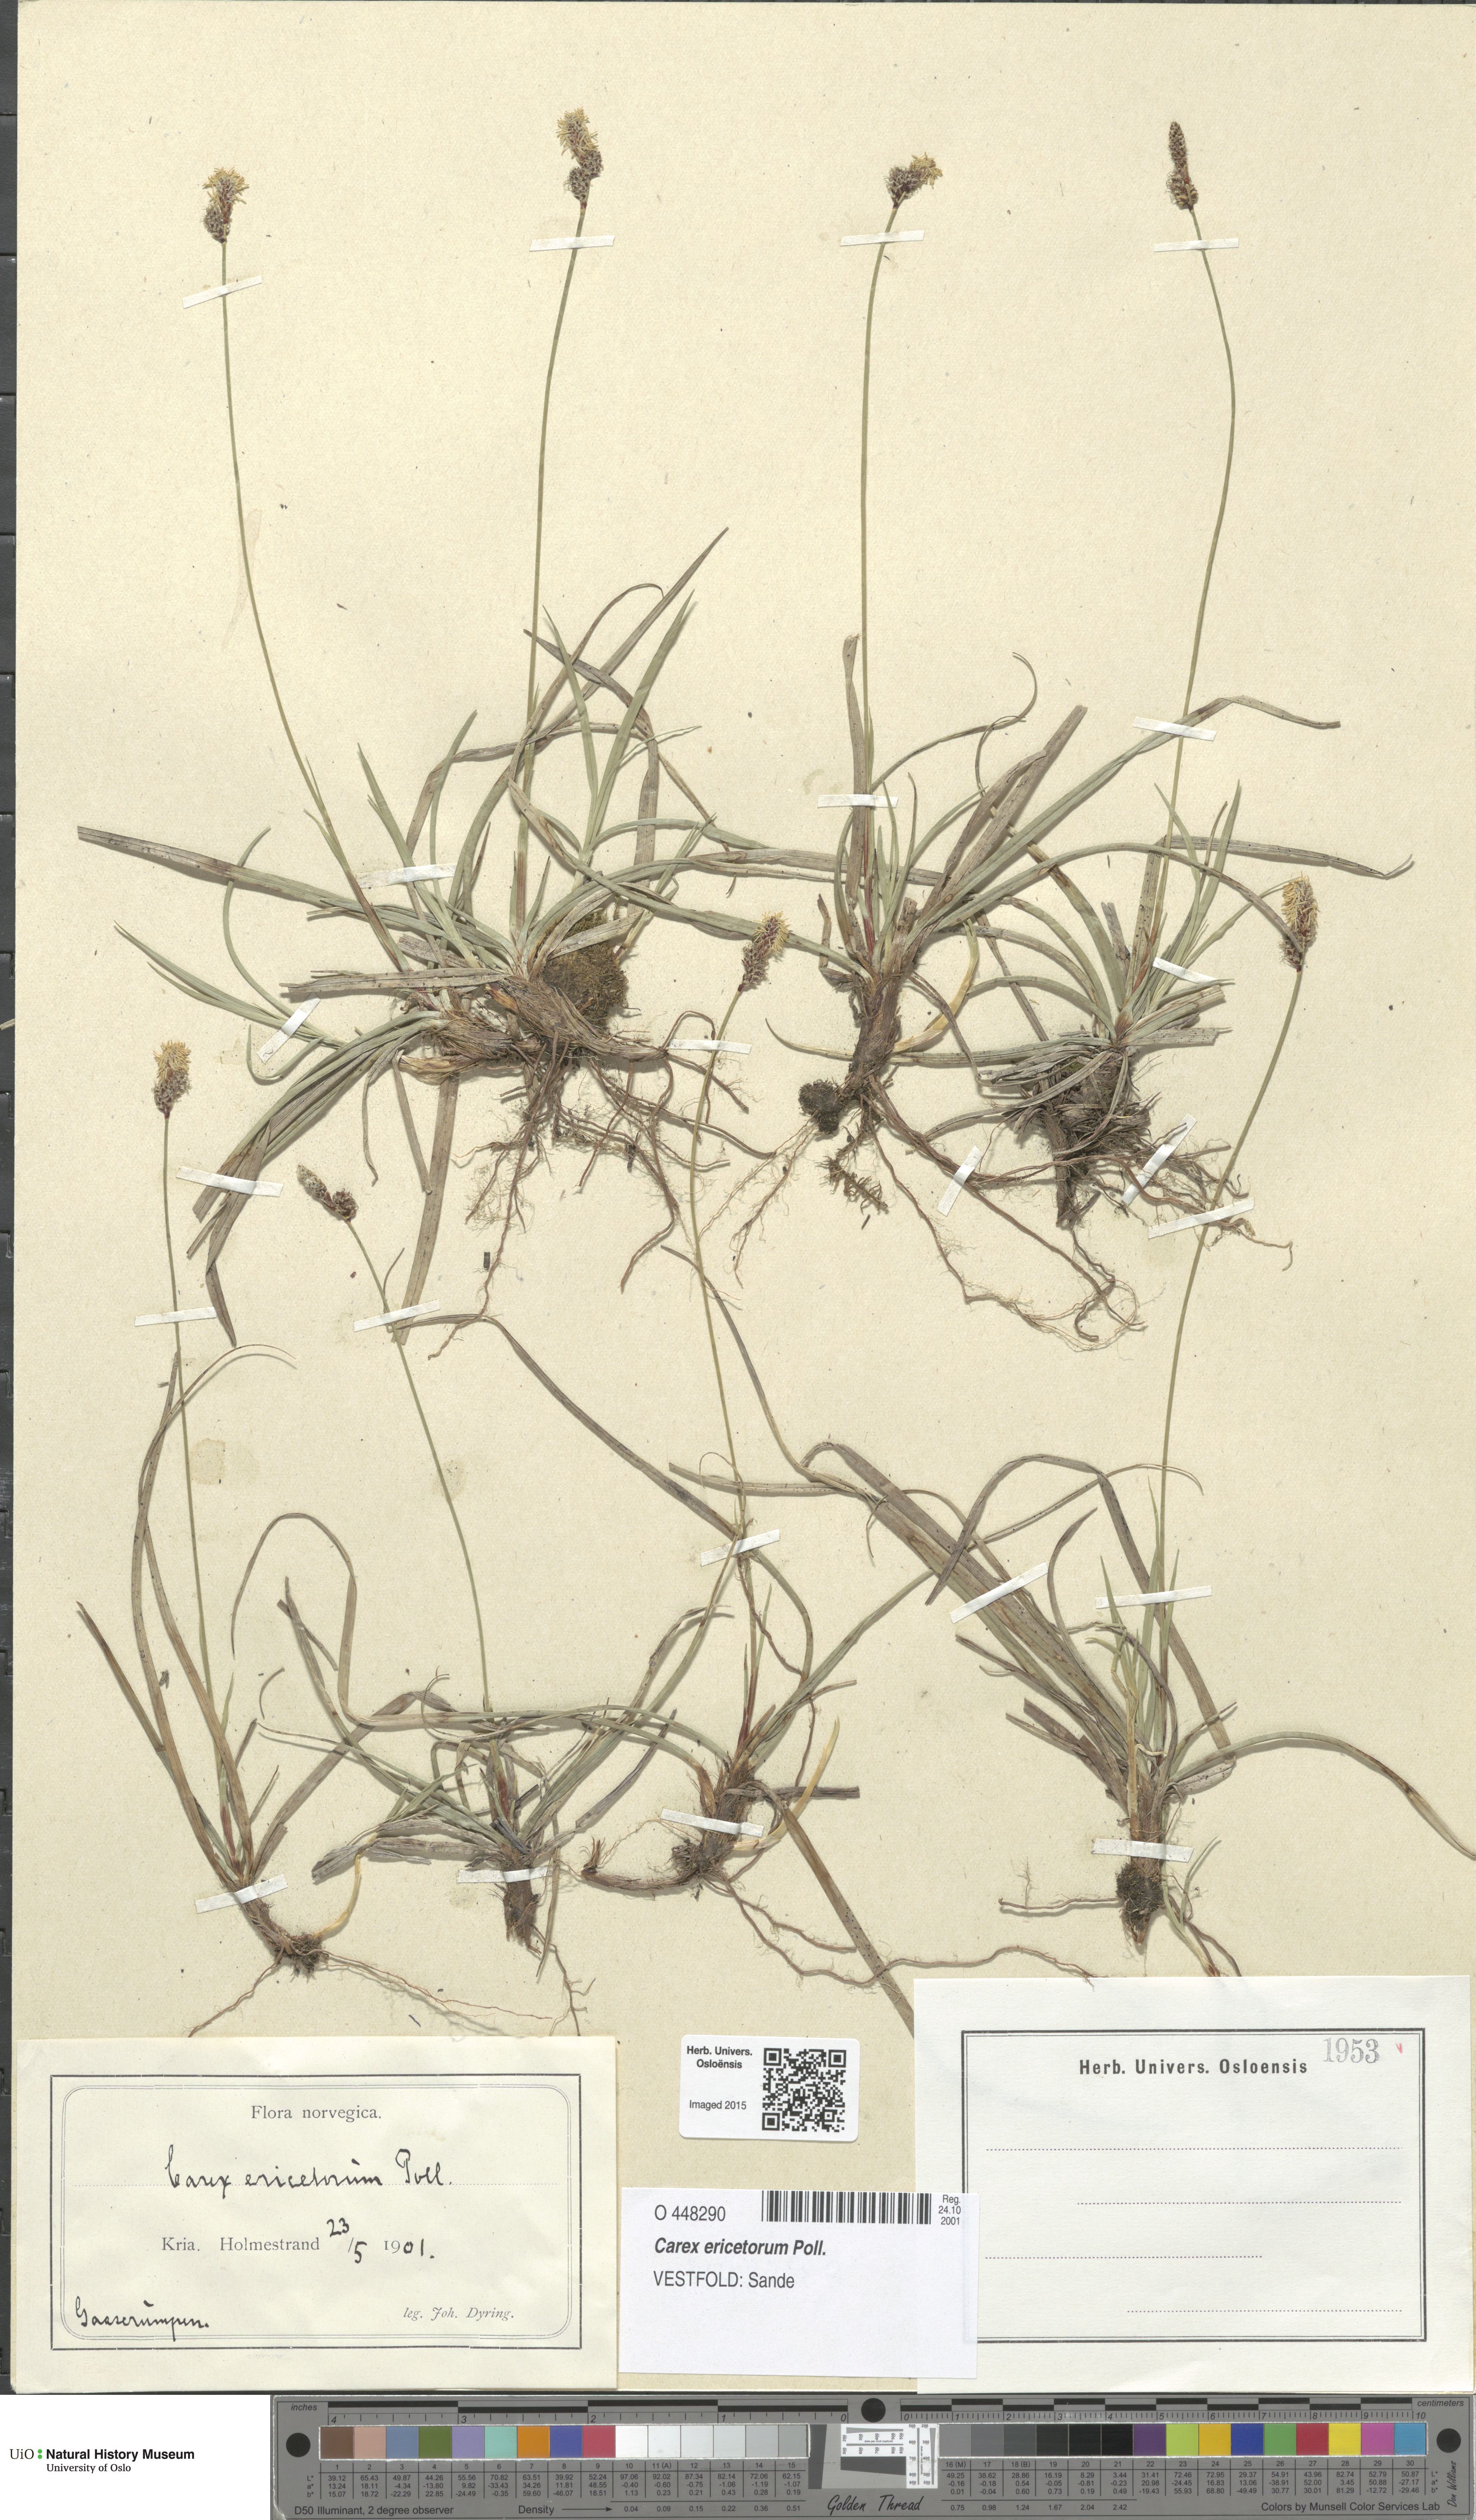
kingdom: Plantae
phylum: Tracheophyta
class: Liliopsida
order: Poales
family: Cyperaceae
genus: Carex
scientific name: Carex ericetorum
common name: Rare spring-sedge
